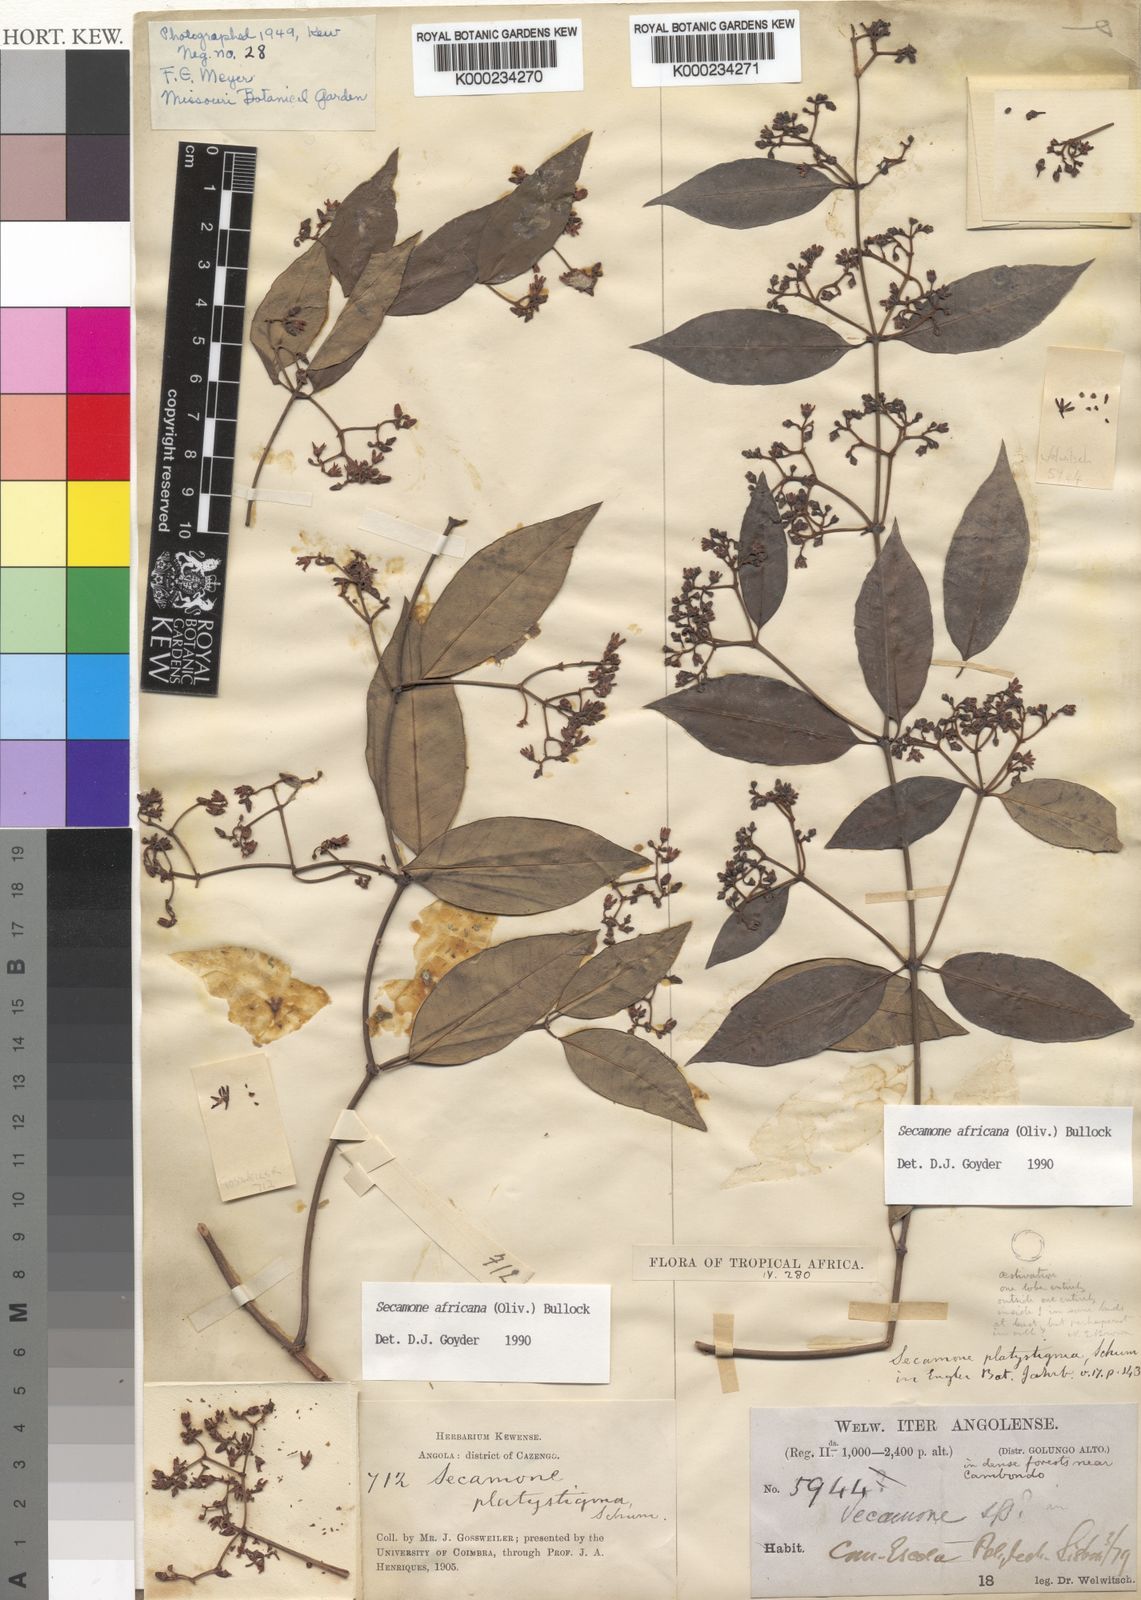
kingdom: Plantae
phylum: Tracheophyta
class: Magnoliopsida
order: Gentianales
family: Apocynaceae
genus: Secamone
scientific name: Secamone africana
